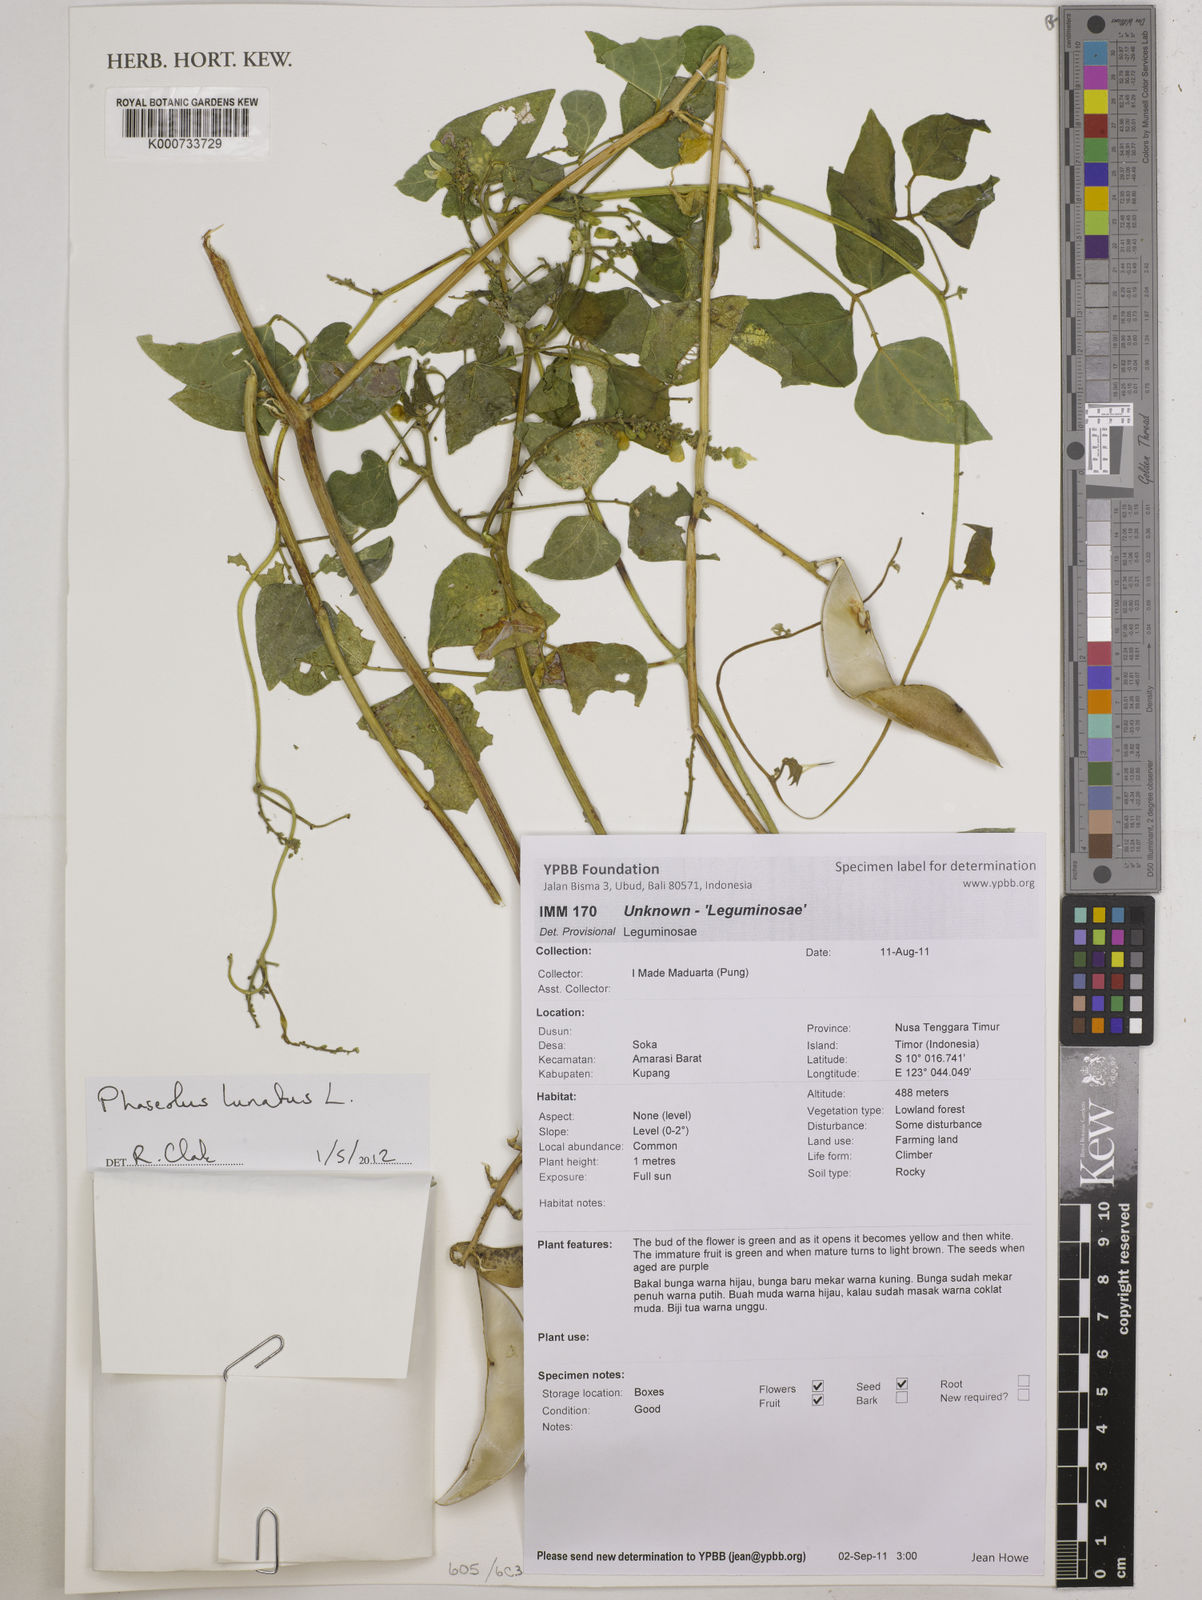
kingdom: Plantae
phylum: Tracheophyta
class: Magnoliopsida
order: Fabales
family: Fabaceae
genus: Phaseolus
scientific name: Phaseolus lunatus
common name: Sieva bean
